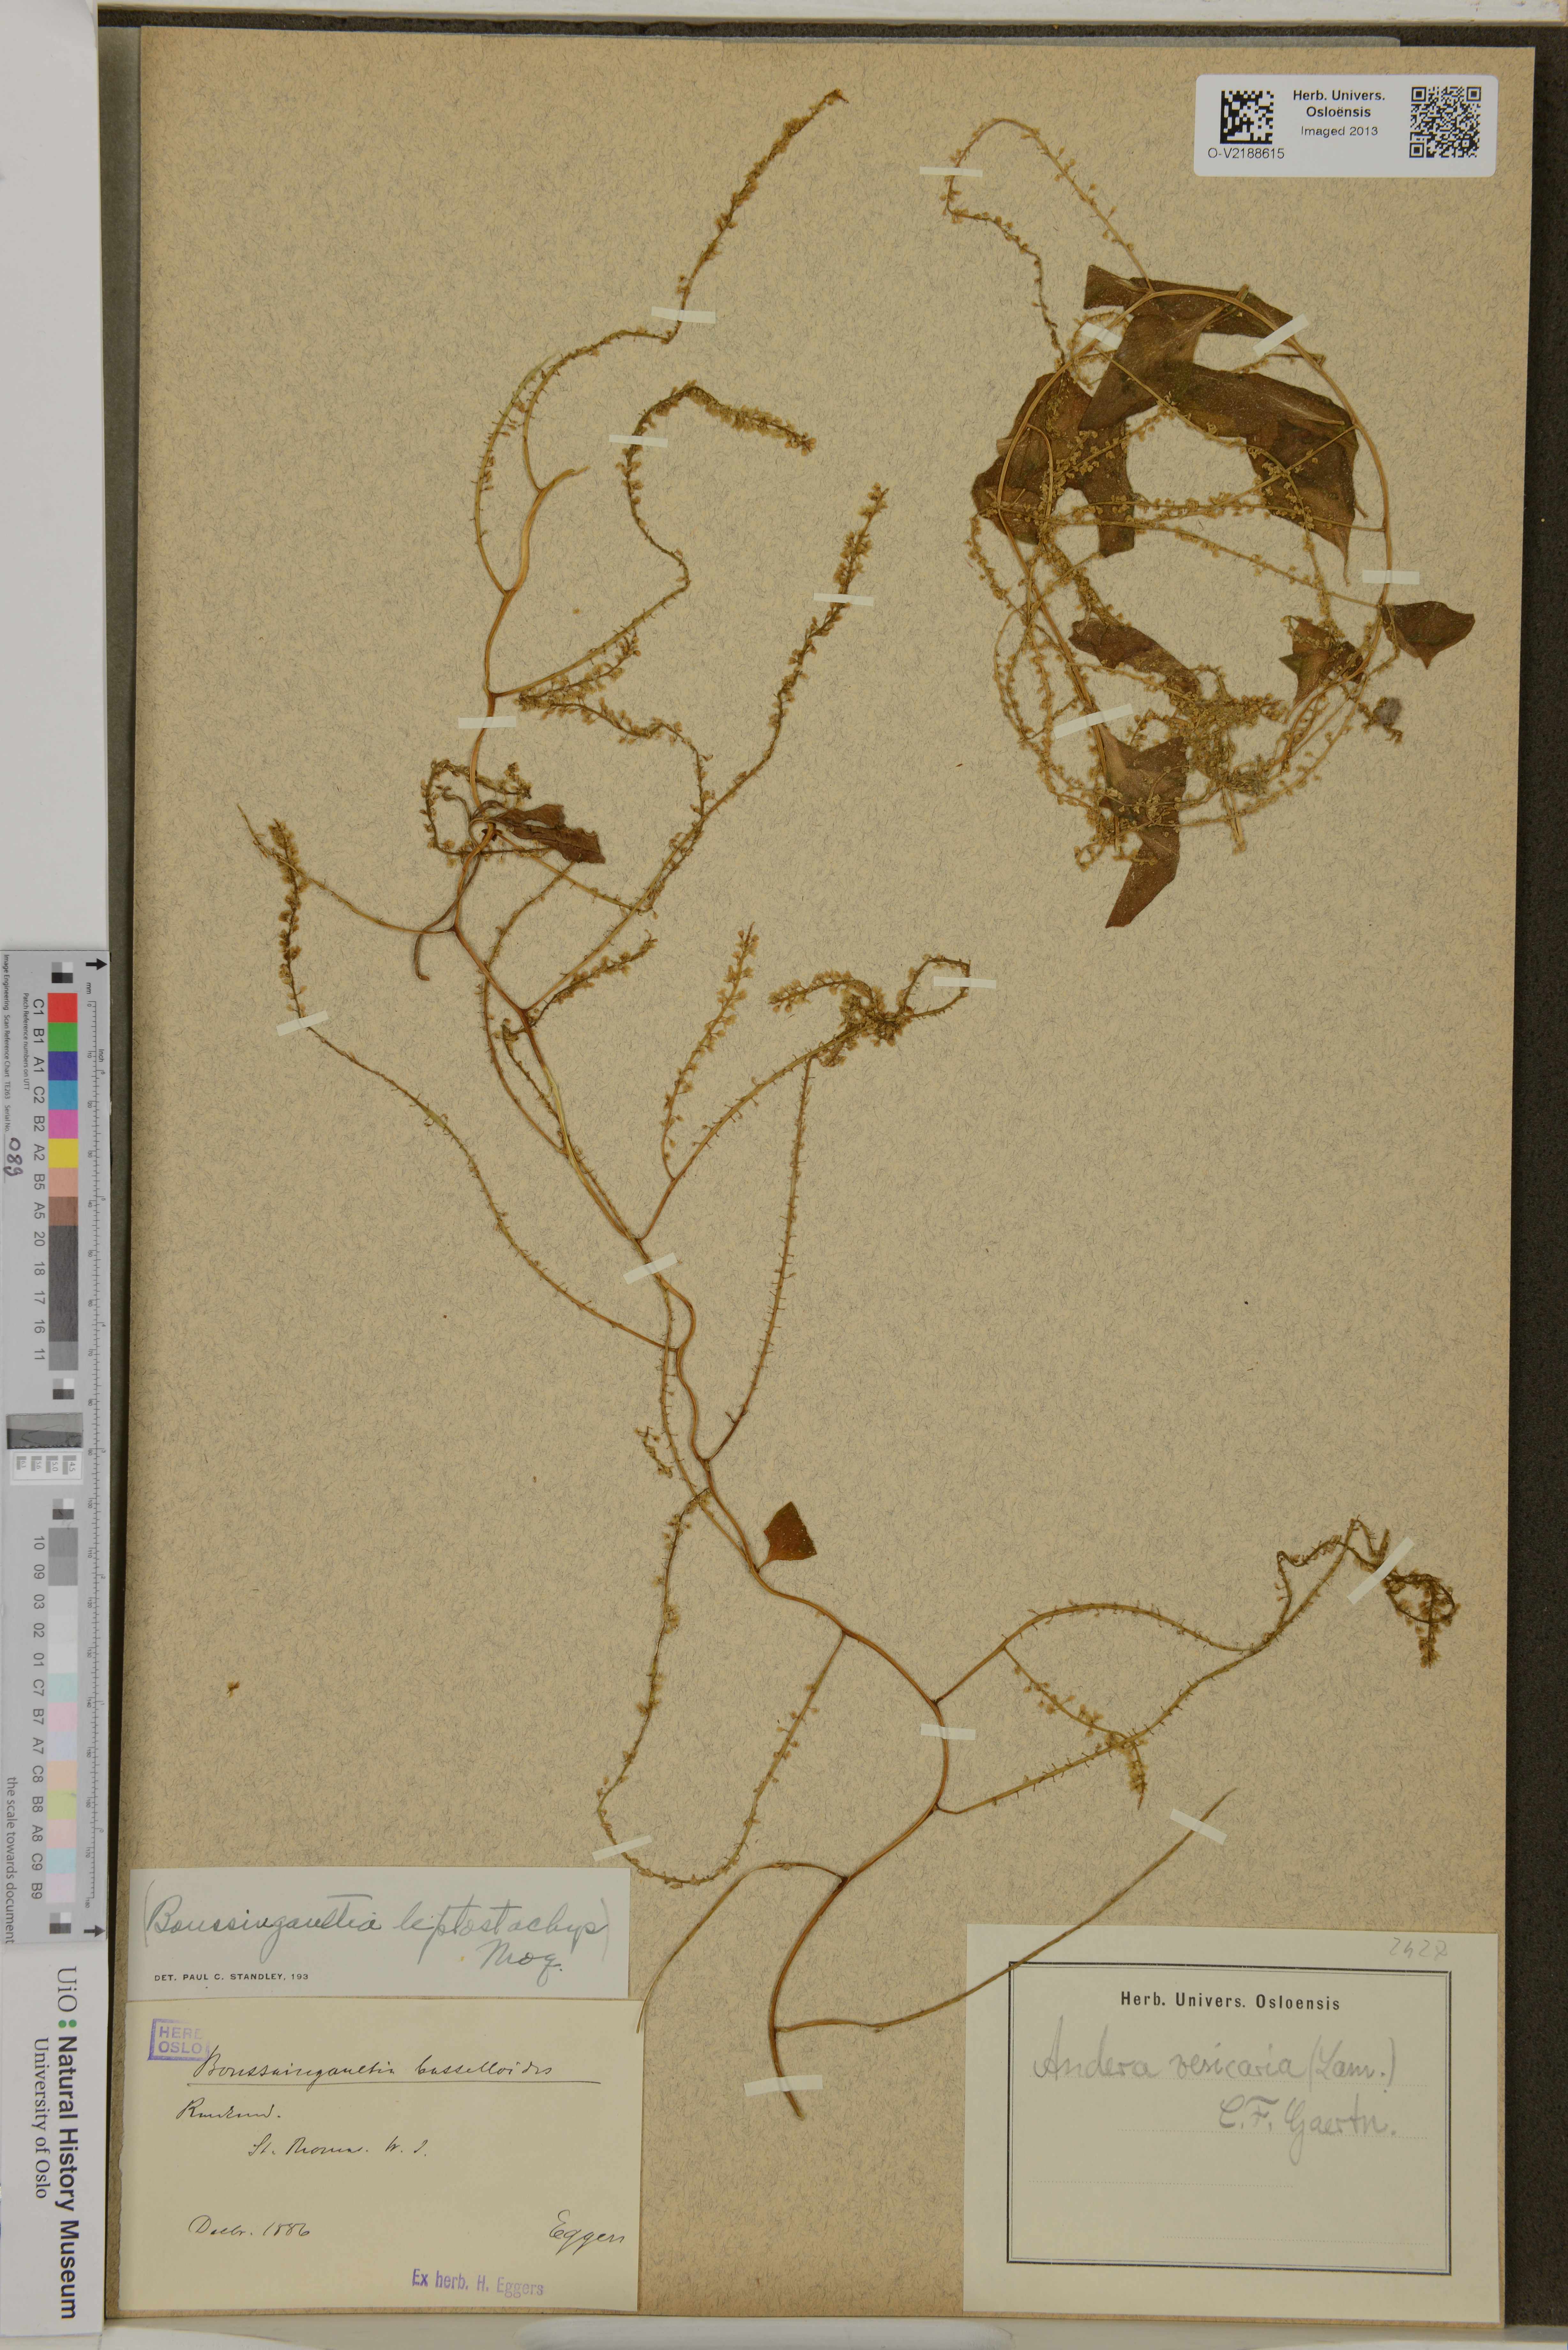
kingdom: Plantae
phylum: Tracheophyta
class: Magnoliopsida
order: Caryophyllales
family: Basellaceae
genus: Anredera
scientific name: Anredera vesicaria
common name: Sacasile
